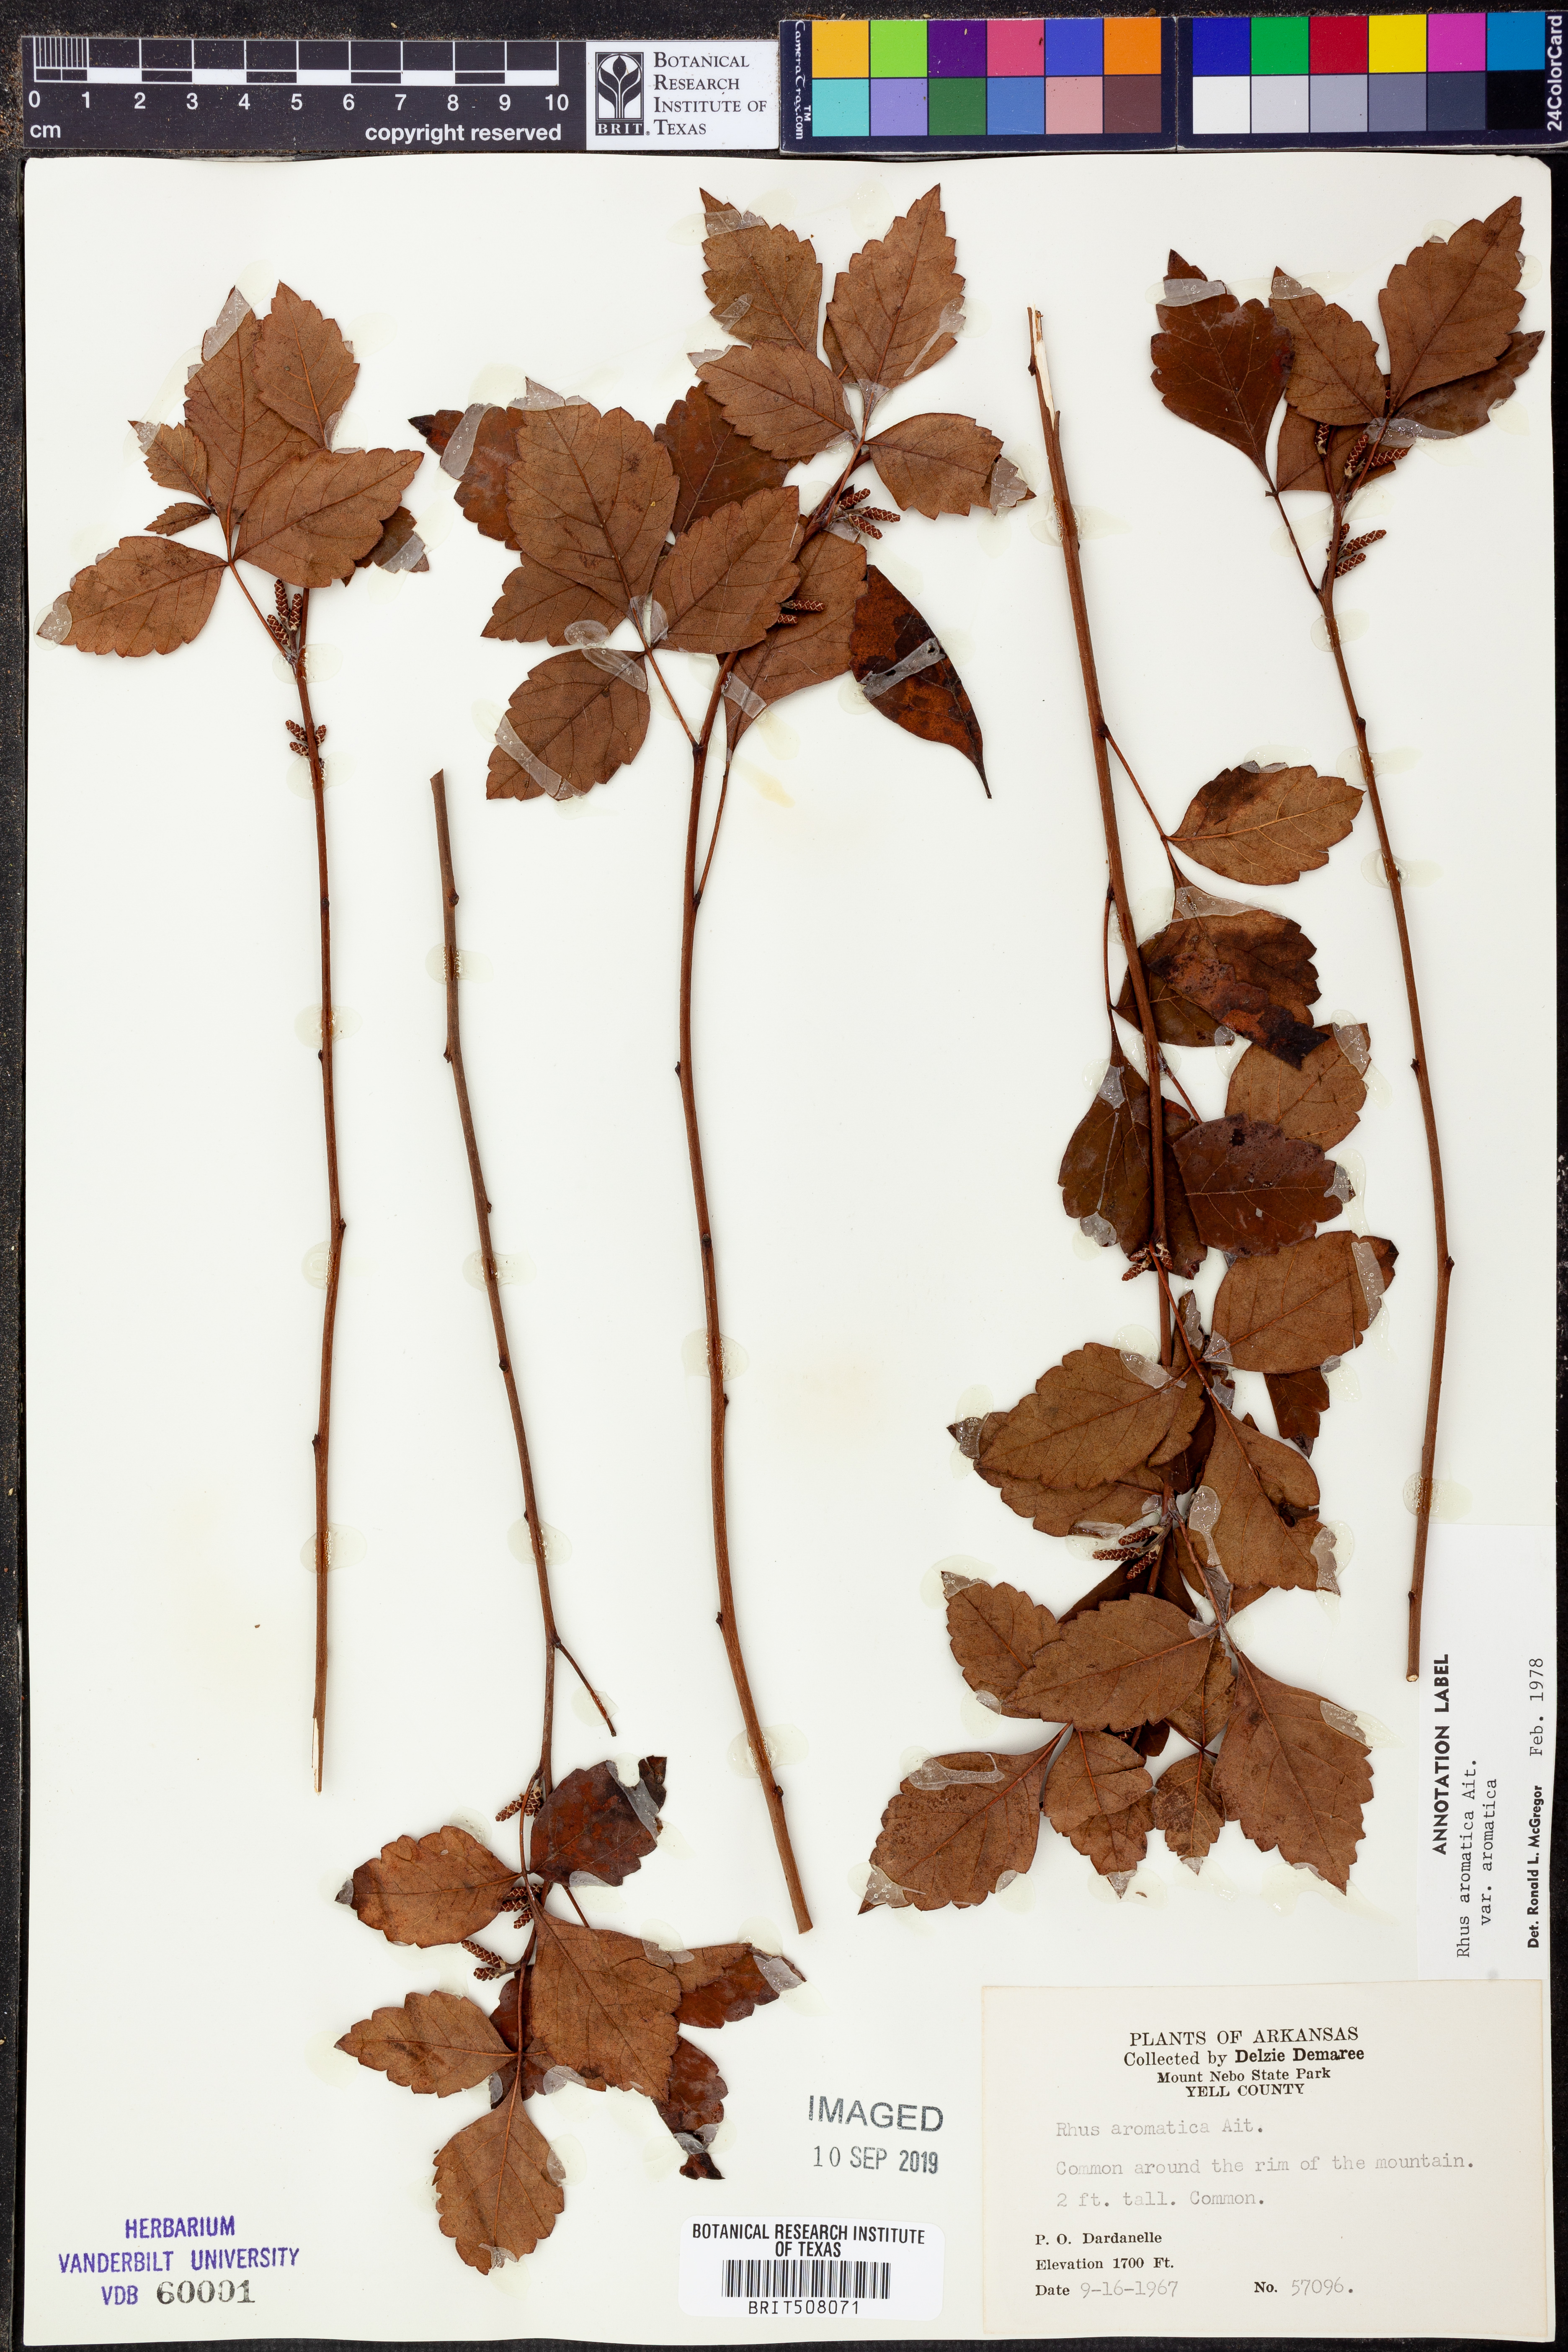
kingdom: Plantae
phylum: Tracheophyta
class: Magnoliopsida
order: Sapindales
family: Anacardiaceae
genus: Rhus
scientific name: Rhus aromatica
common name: Aromatic sumac
